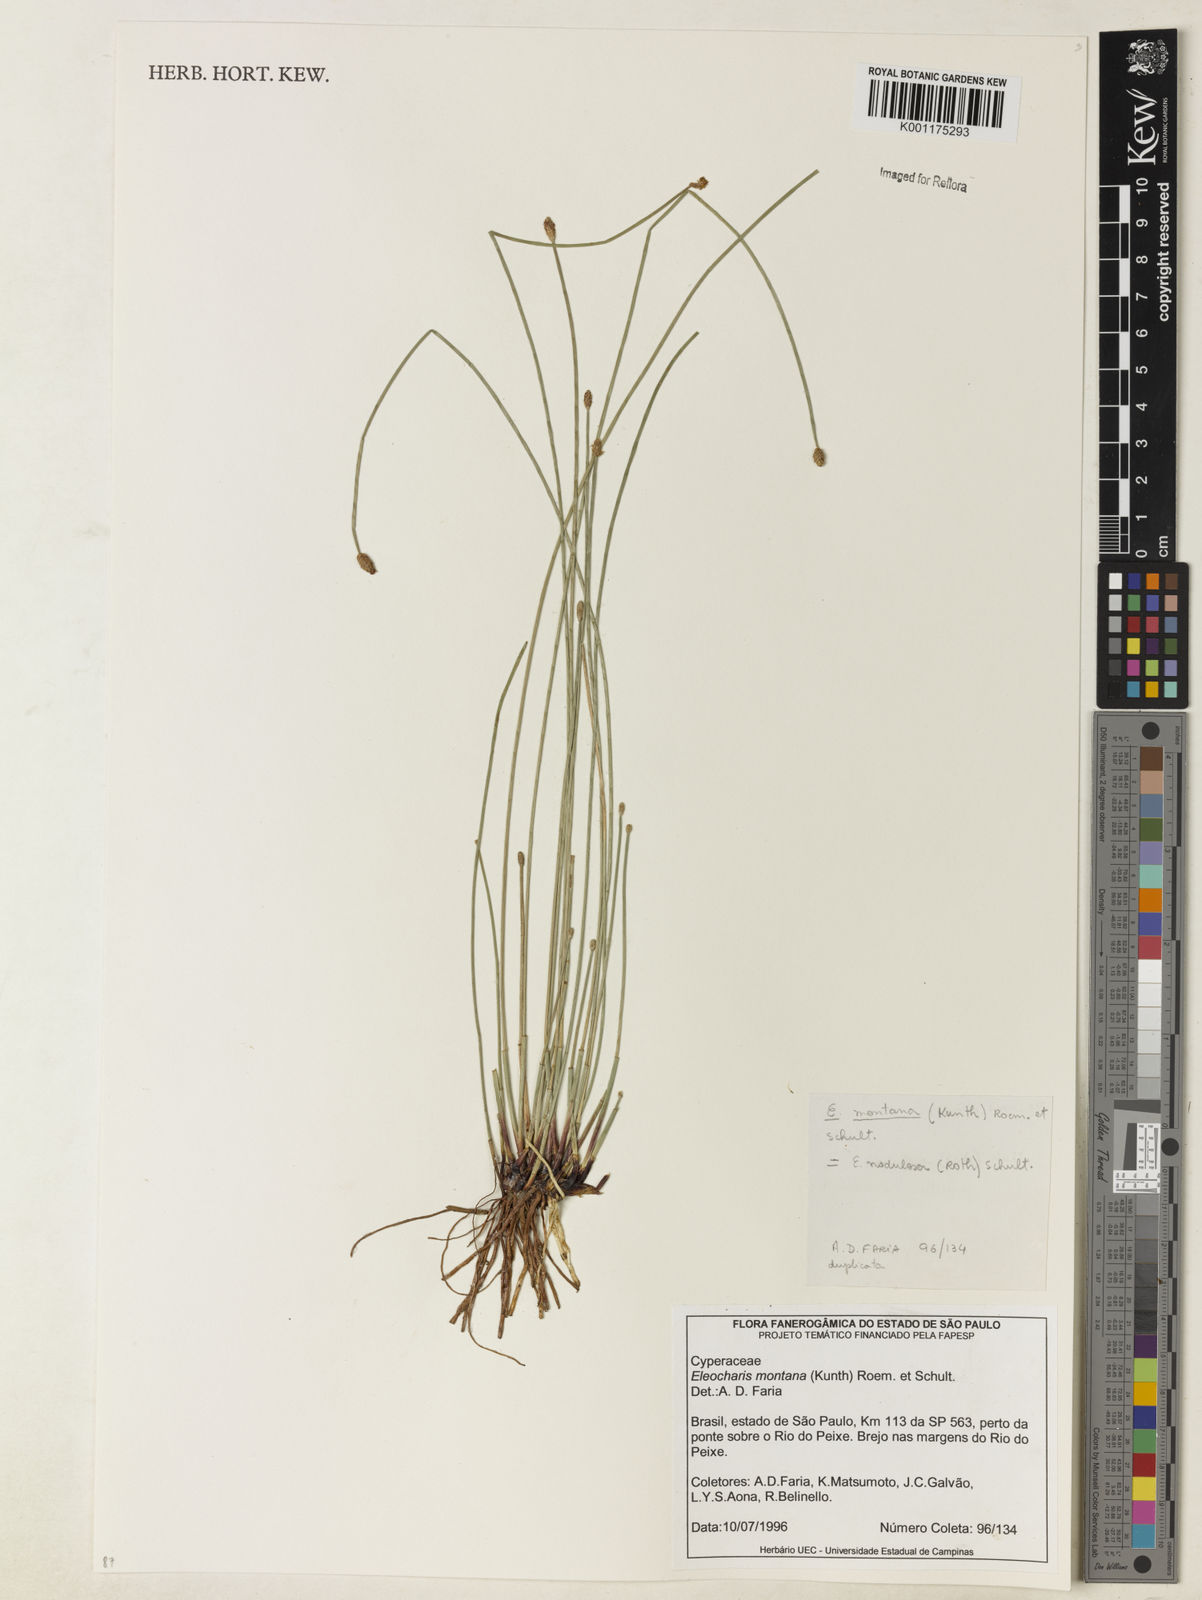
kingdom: Plantae
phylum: Tracheophyta
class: Liliopsida
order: Poales
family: Cyperaceae
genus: Eleocharis
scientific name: Eleocharis montana
